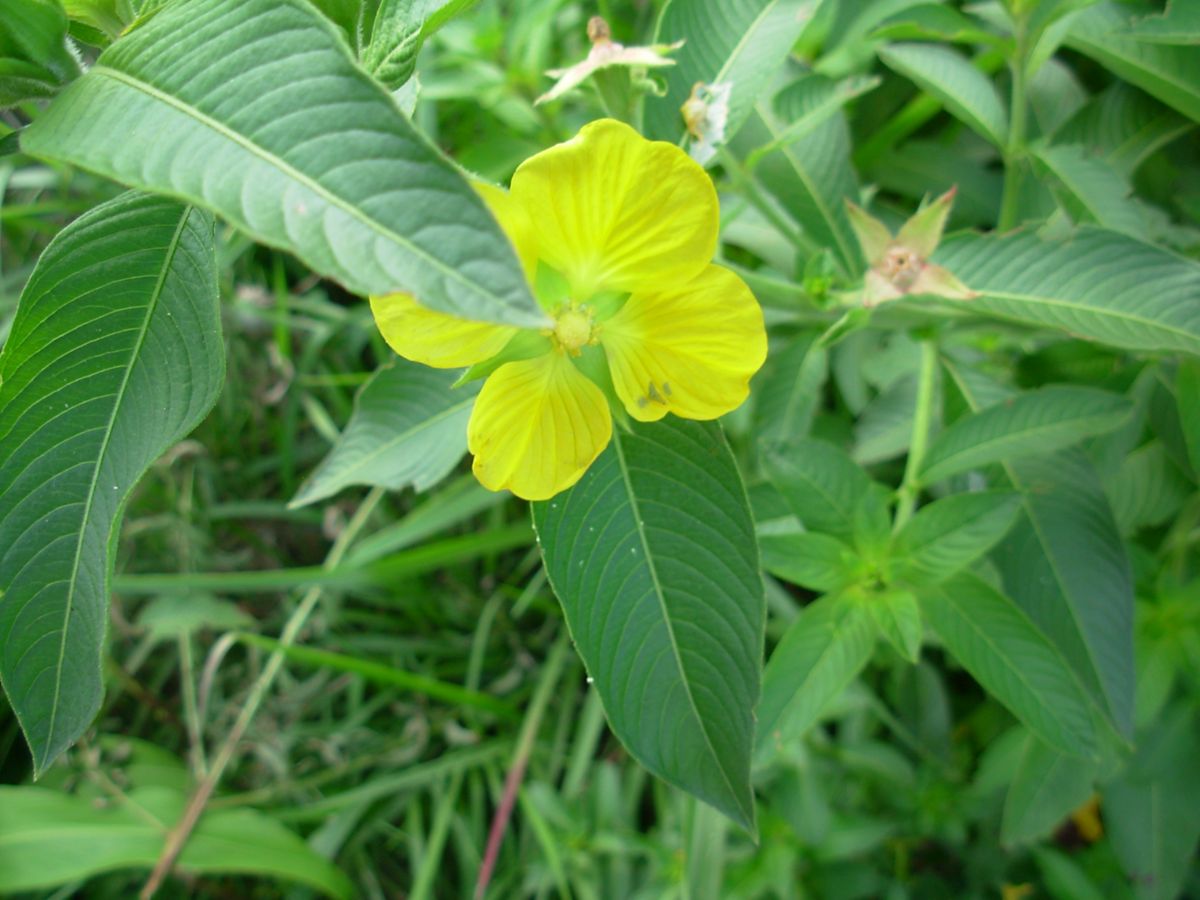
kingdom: Plantae
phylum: Tracheophyta
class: Magnoliopsida
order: Myrtales
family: Onagraceae
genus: Ludwigia
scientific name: Ludwigia peruviana
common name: Peruvian primrose-willow
